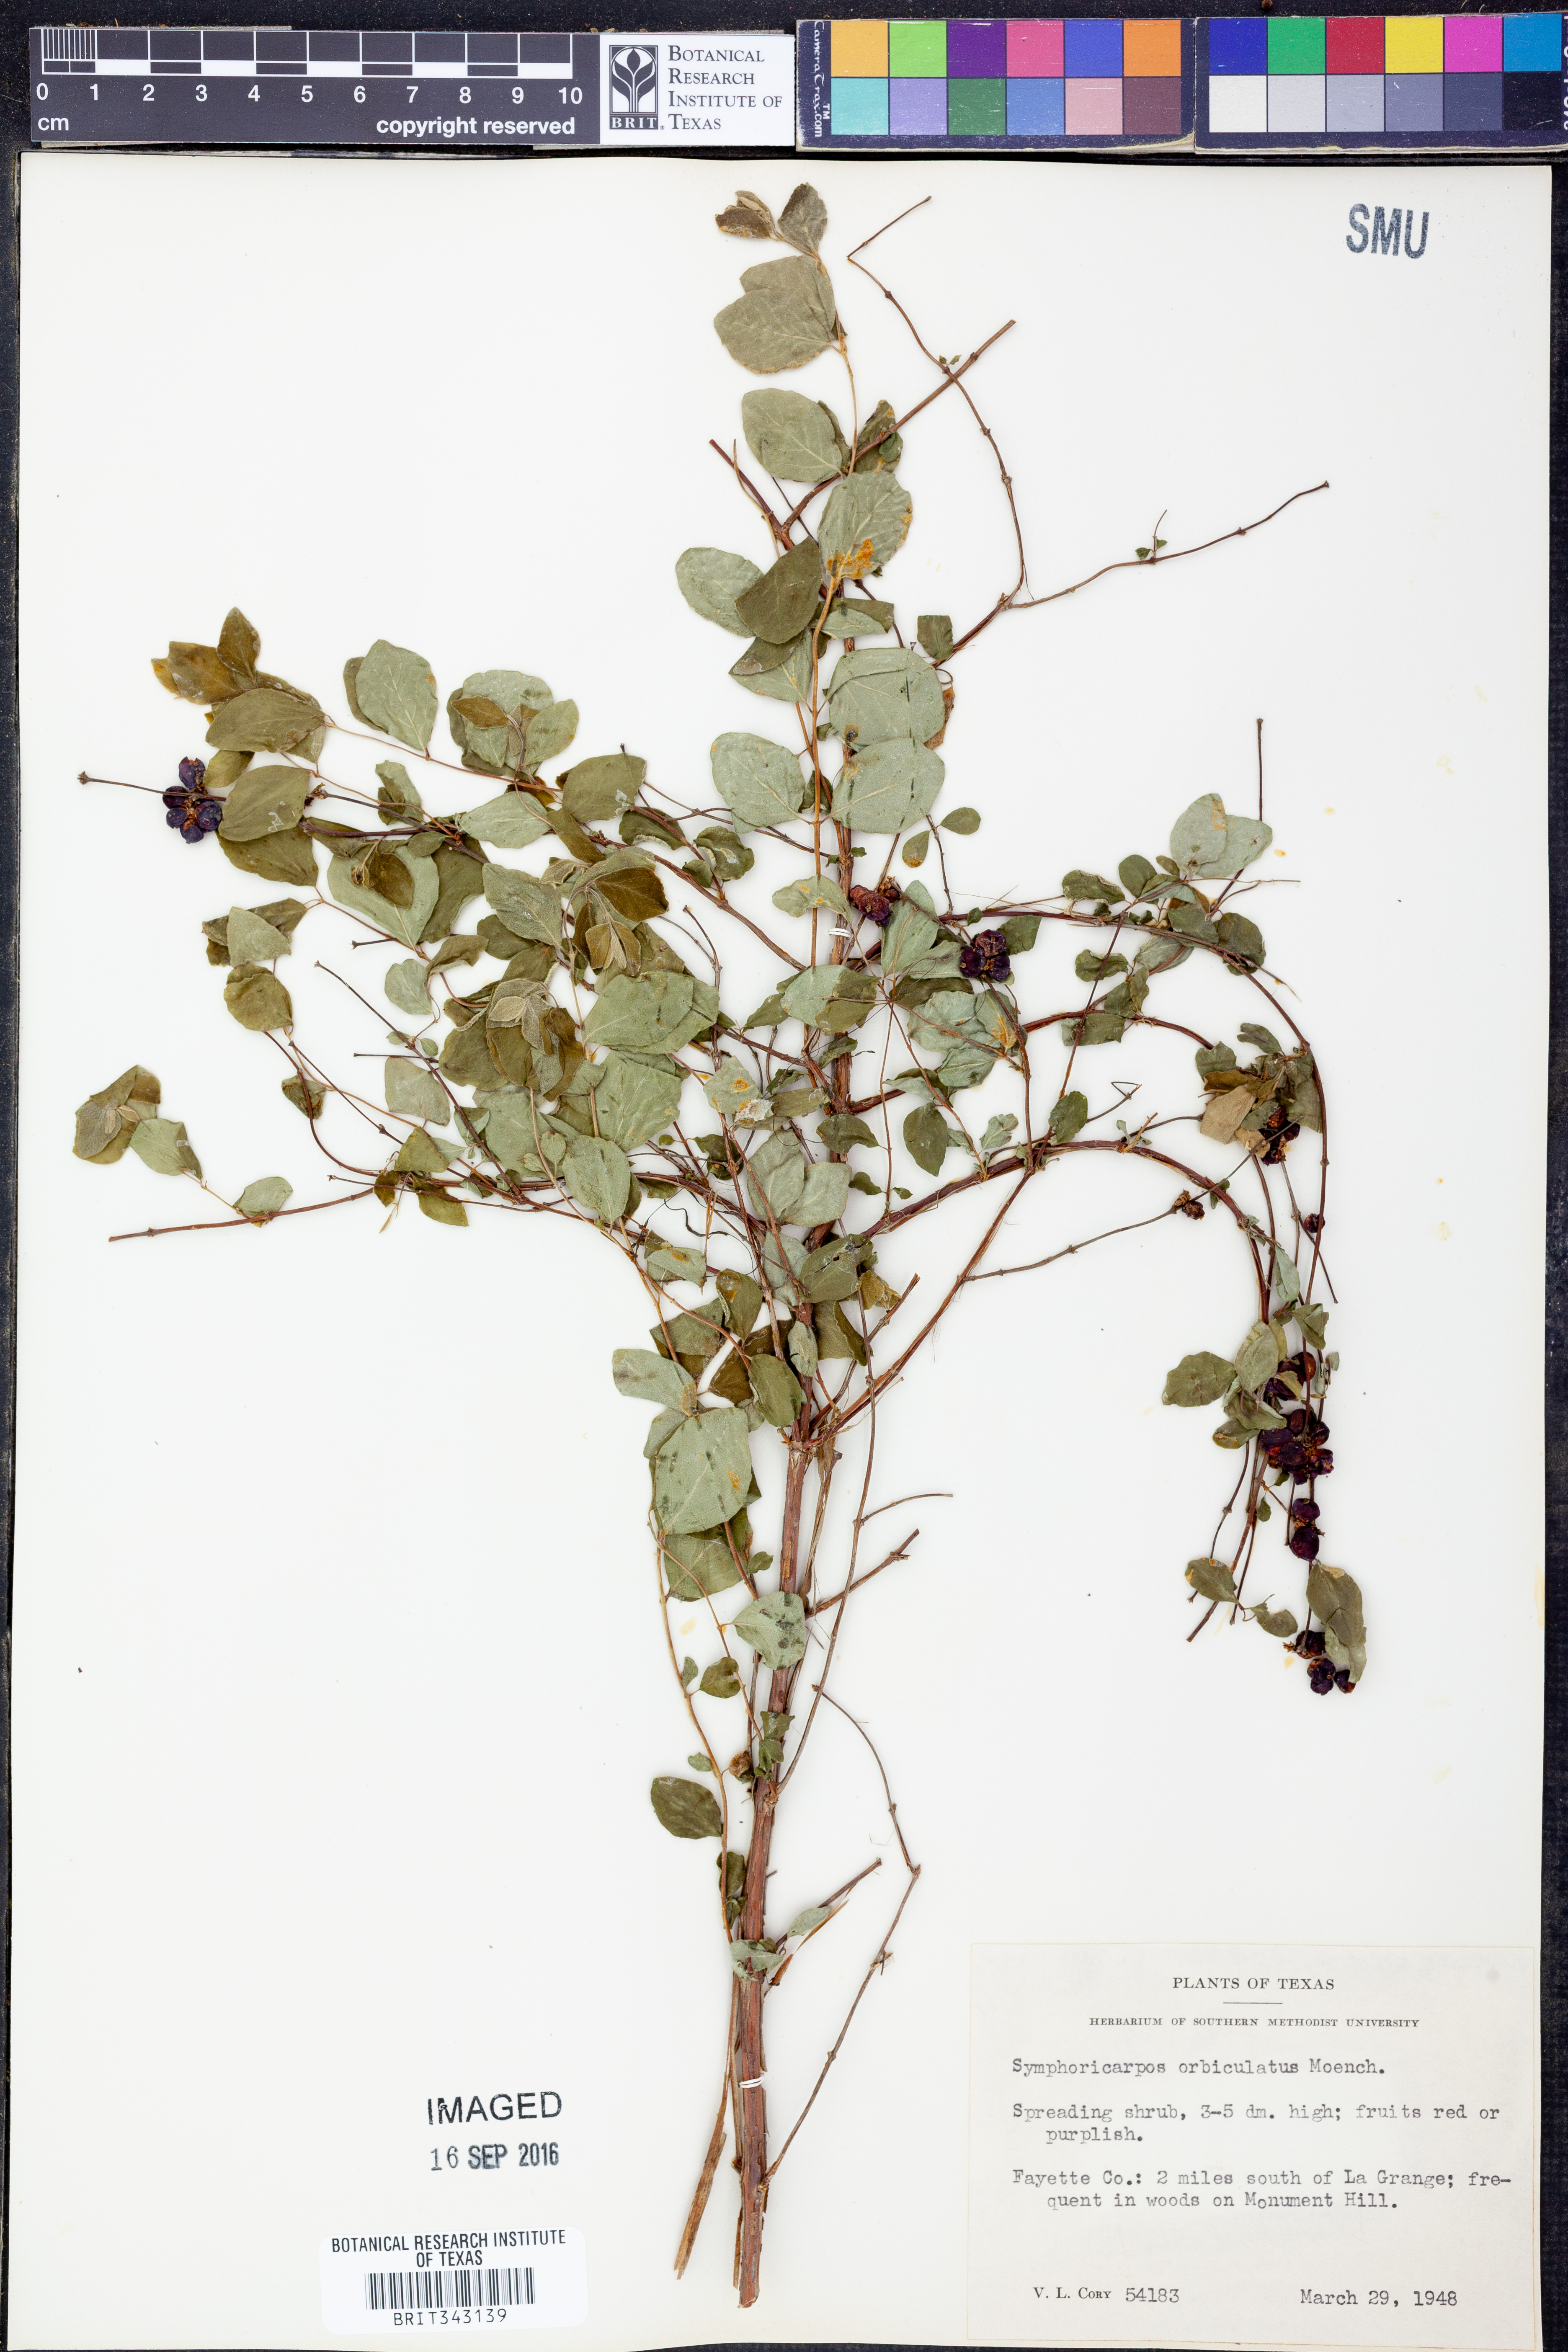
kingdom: Plantae
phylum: Tracheophyta
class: Magnoliopsida
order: Dipsacales
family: Caprifoliaceae
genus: Symphoricarpos
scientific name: Symphoricarpos orbiculatus
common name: Coralberry
